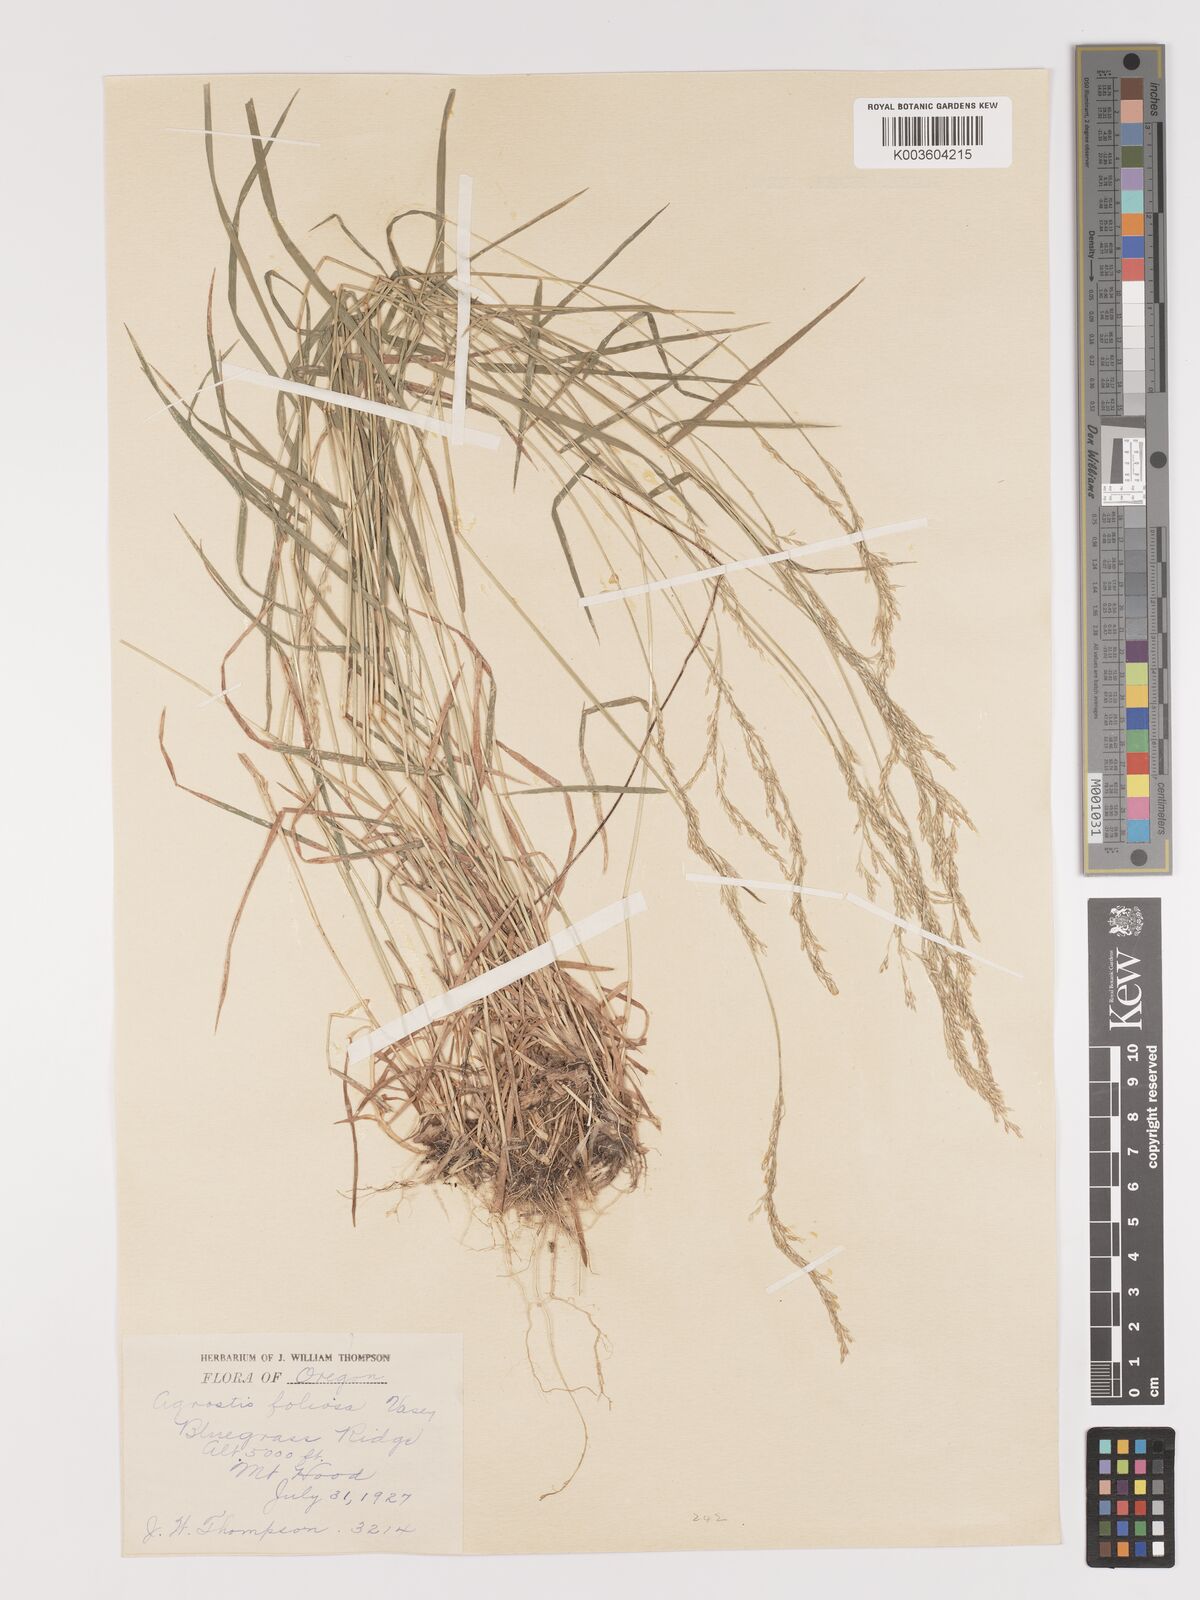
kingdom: Plantae
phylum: Tracheophyta
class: Liliopsida
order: Poales
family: Poaceae
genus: Agrostis
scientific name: Agrostis pallens
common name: Dune bent
